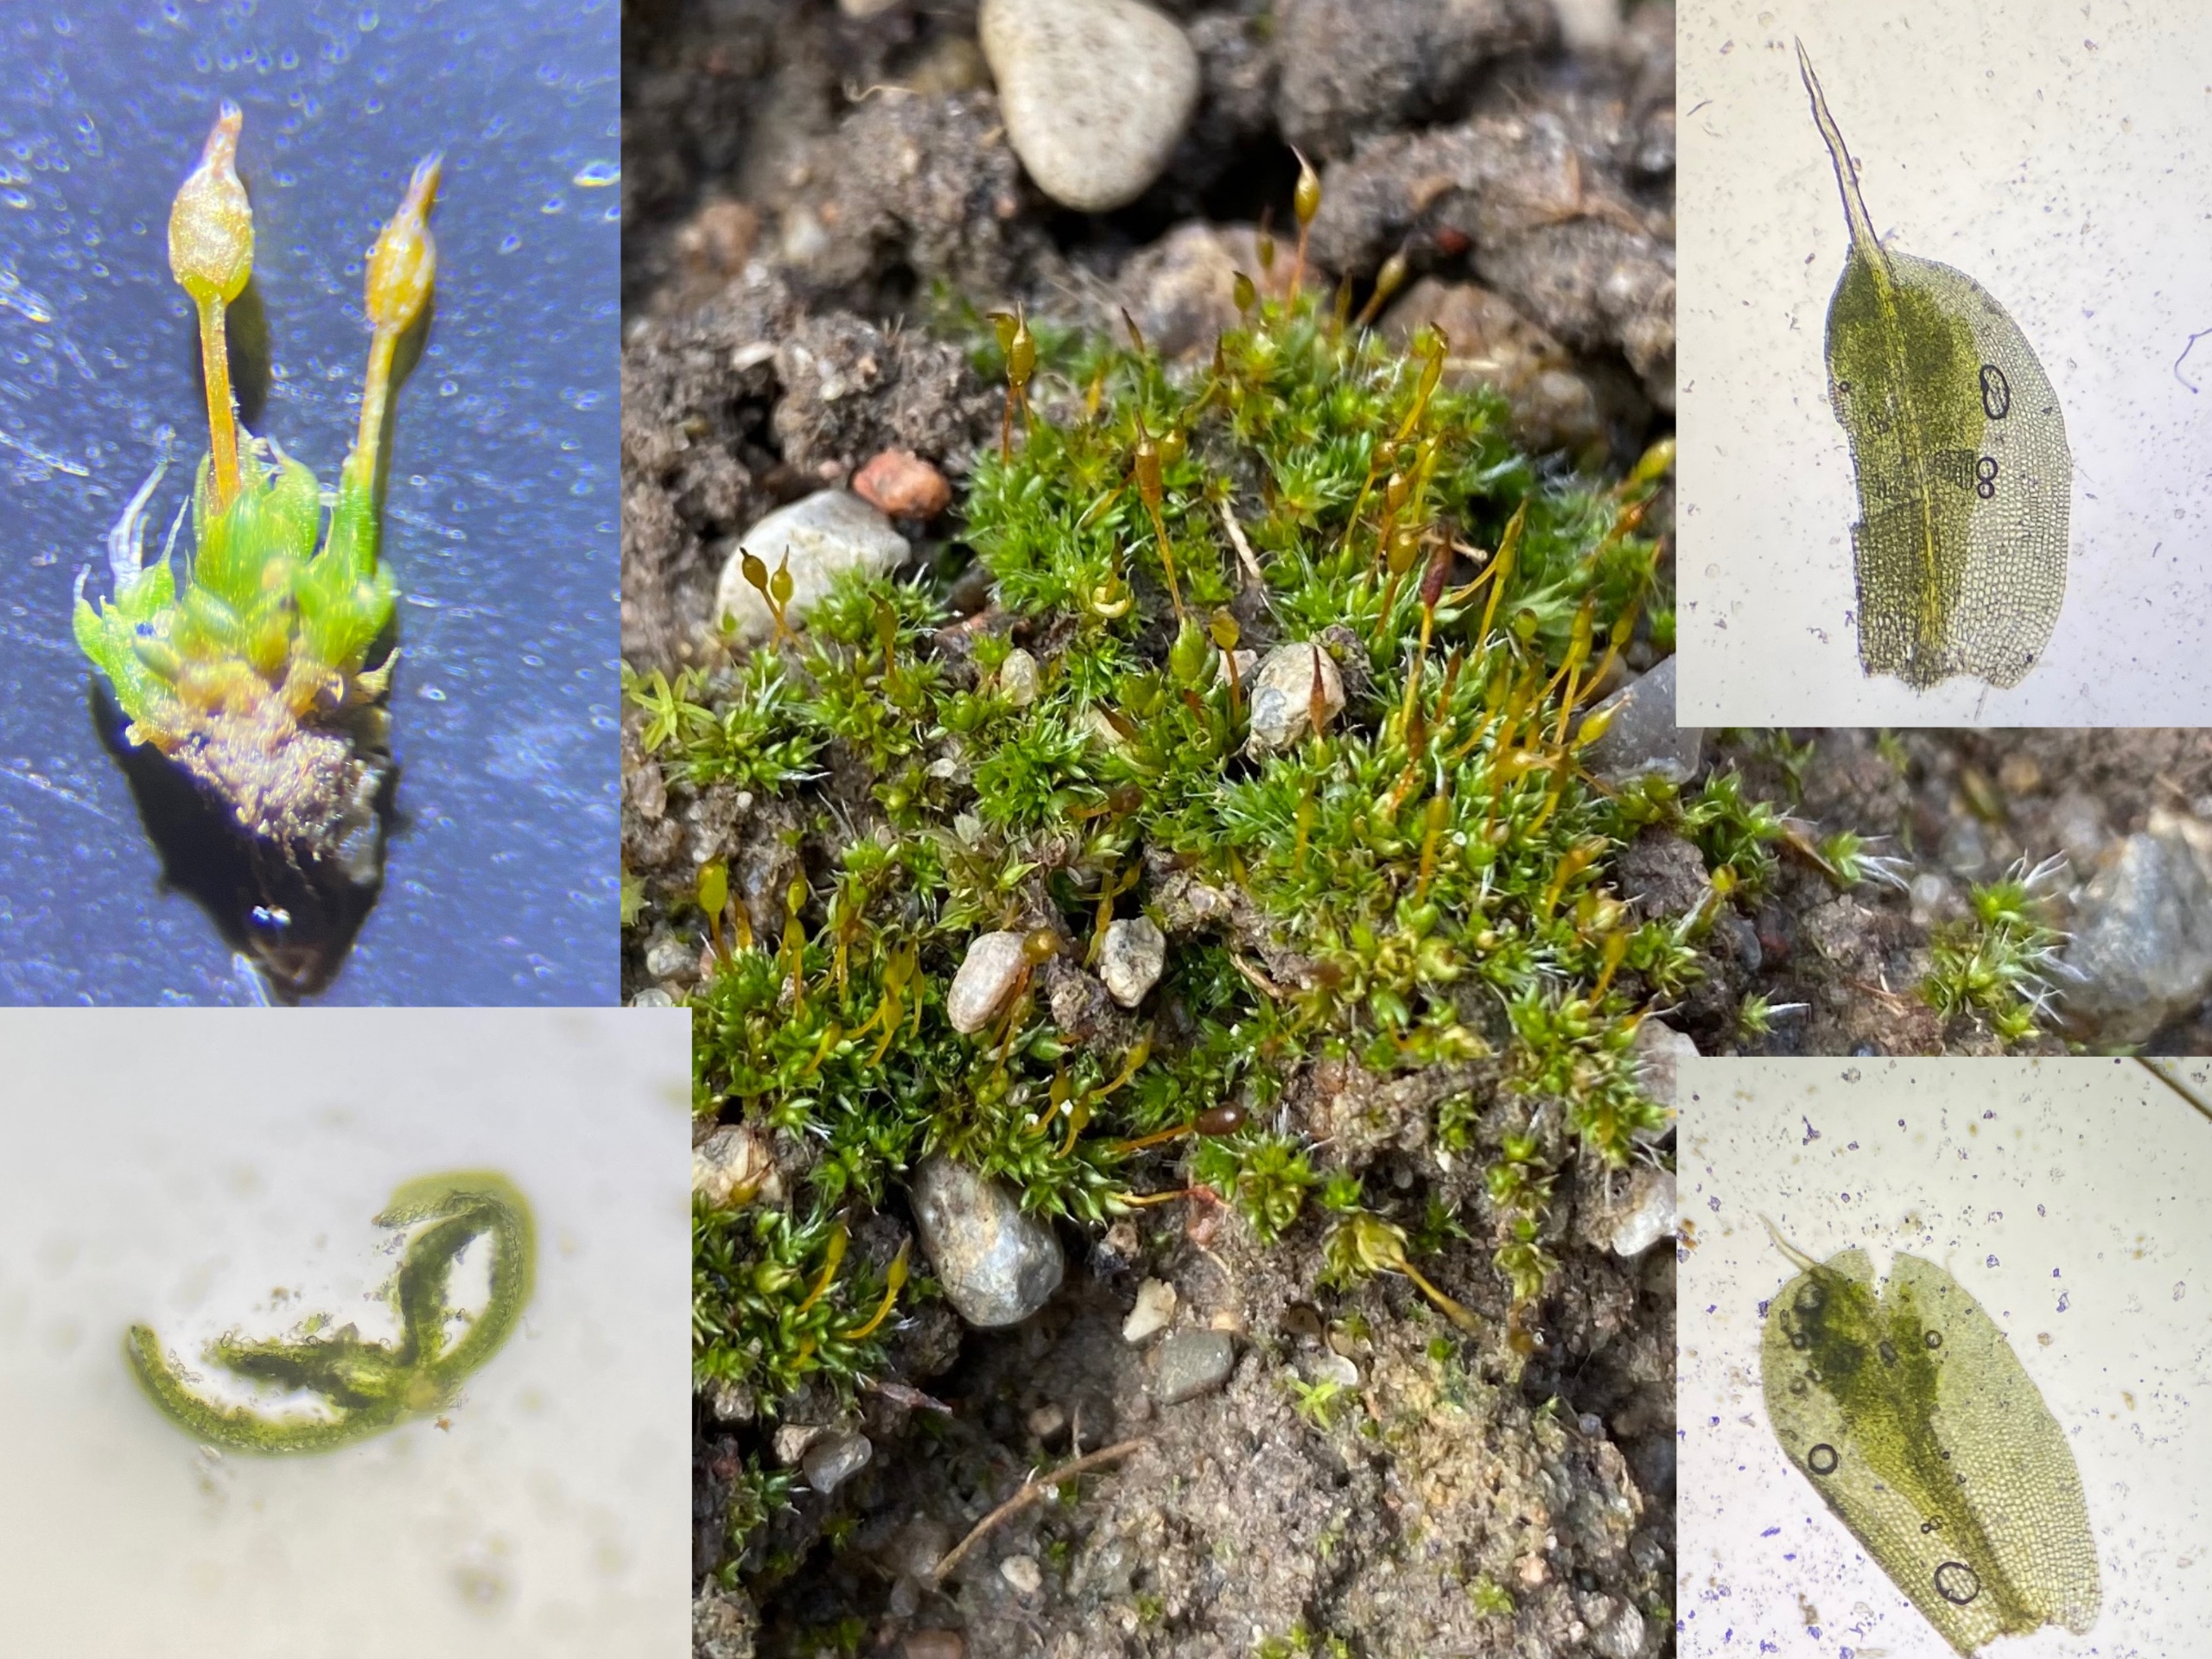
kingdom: Plantae
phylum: Bryophyta
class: Bryopsida
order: Pottiales
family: Pottiaceae
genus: Pterygoneurum
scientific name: Pterygoneurum ovatum
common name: Langhåret vingenerve
